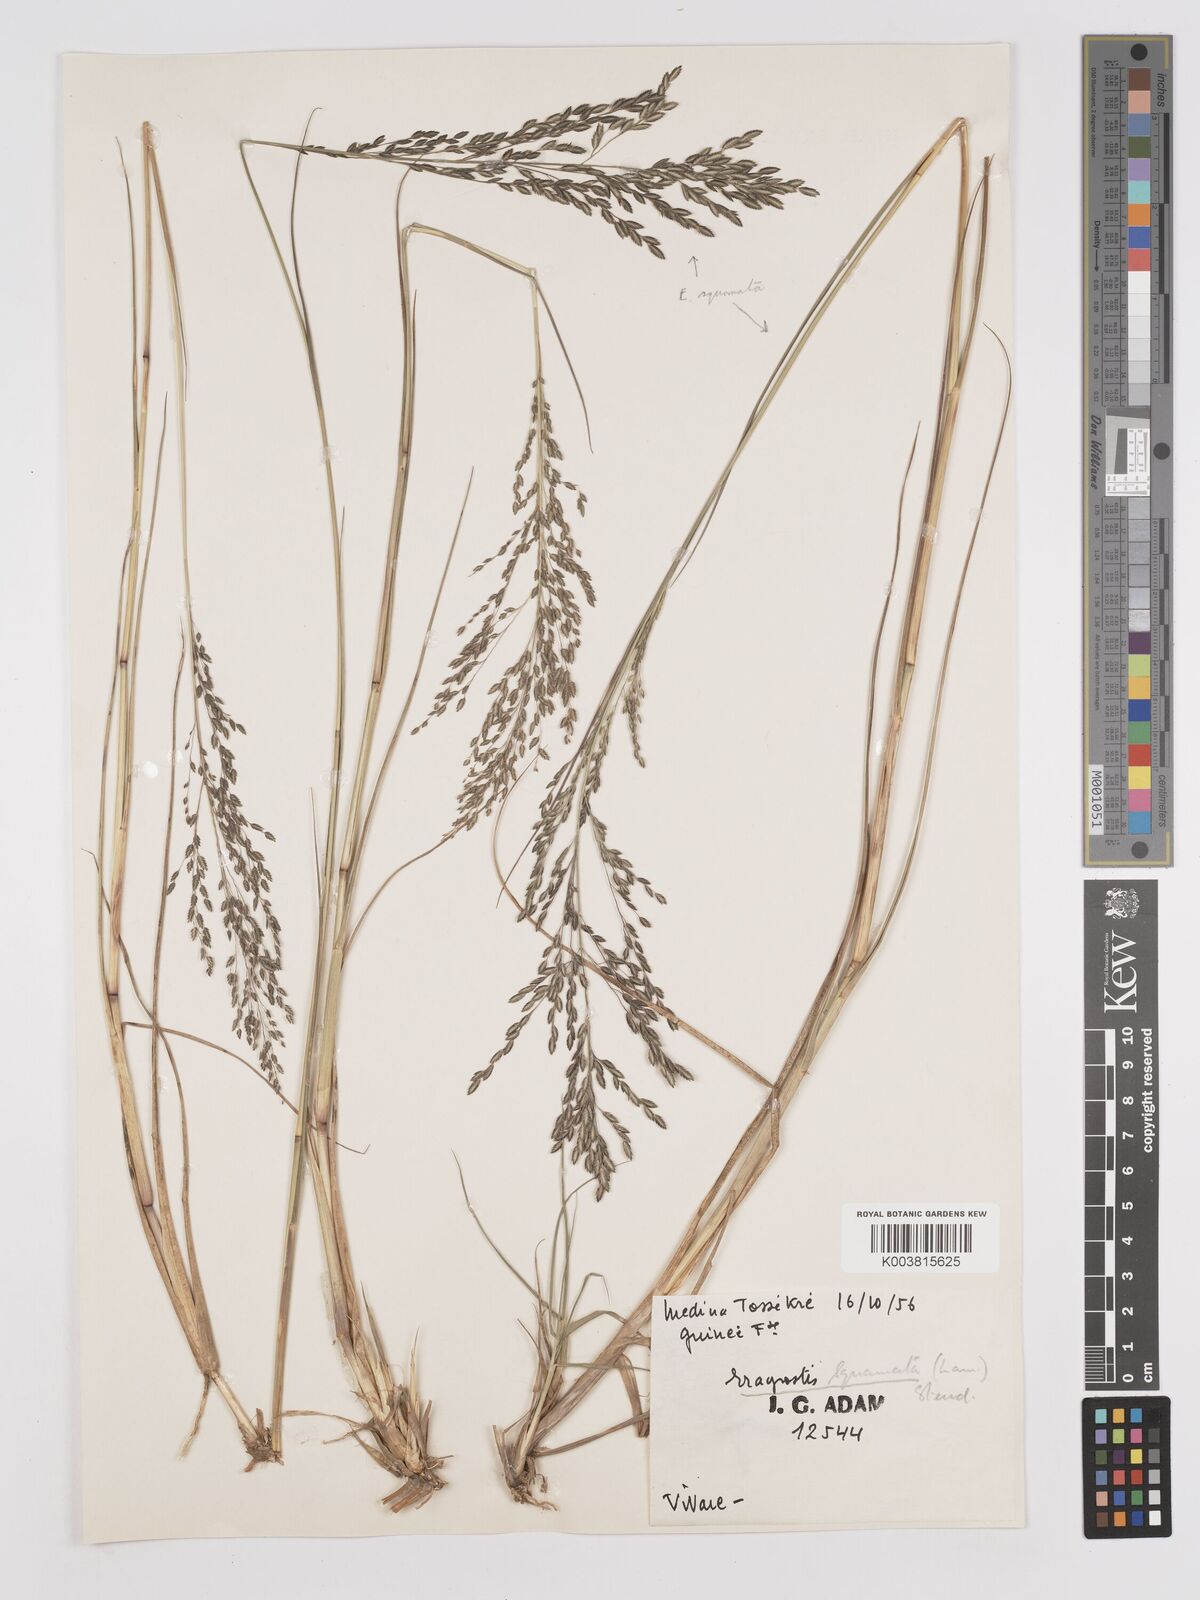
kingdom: Plantae
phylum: Tracheophyta
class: Liliopsida
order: Poales
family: Poaceae
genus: Eragrostis
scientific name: Eragrostis squamata
